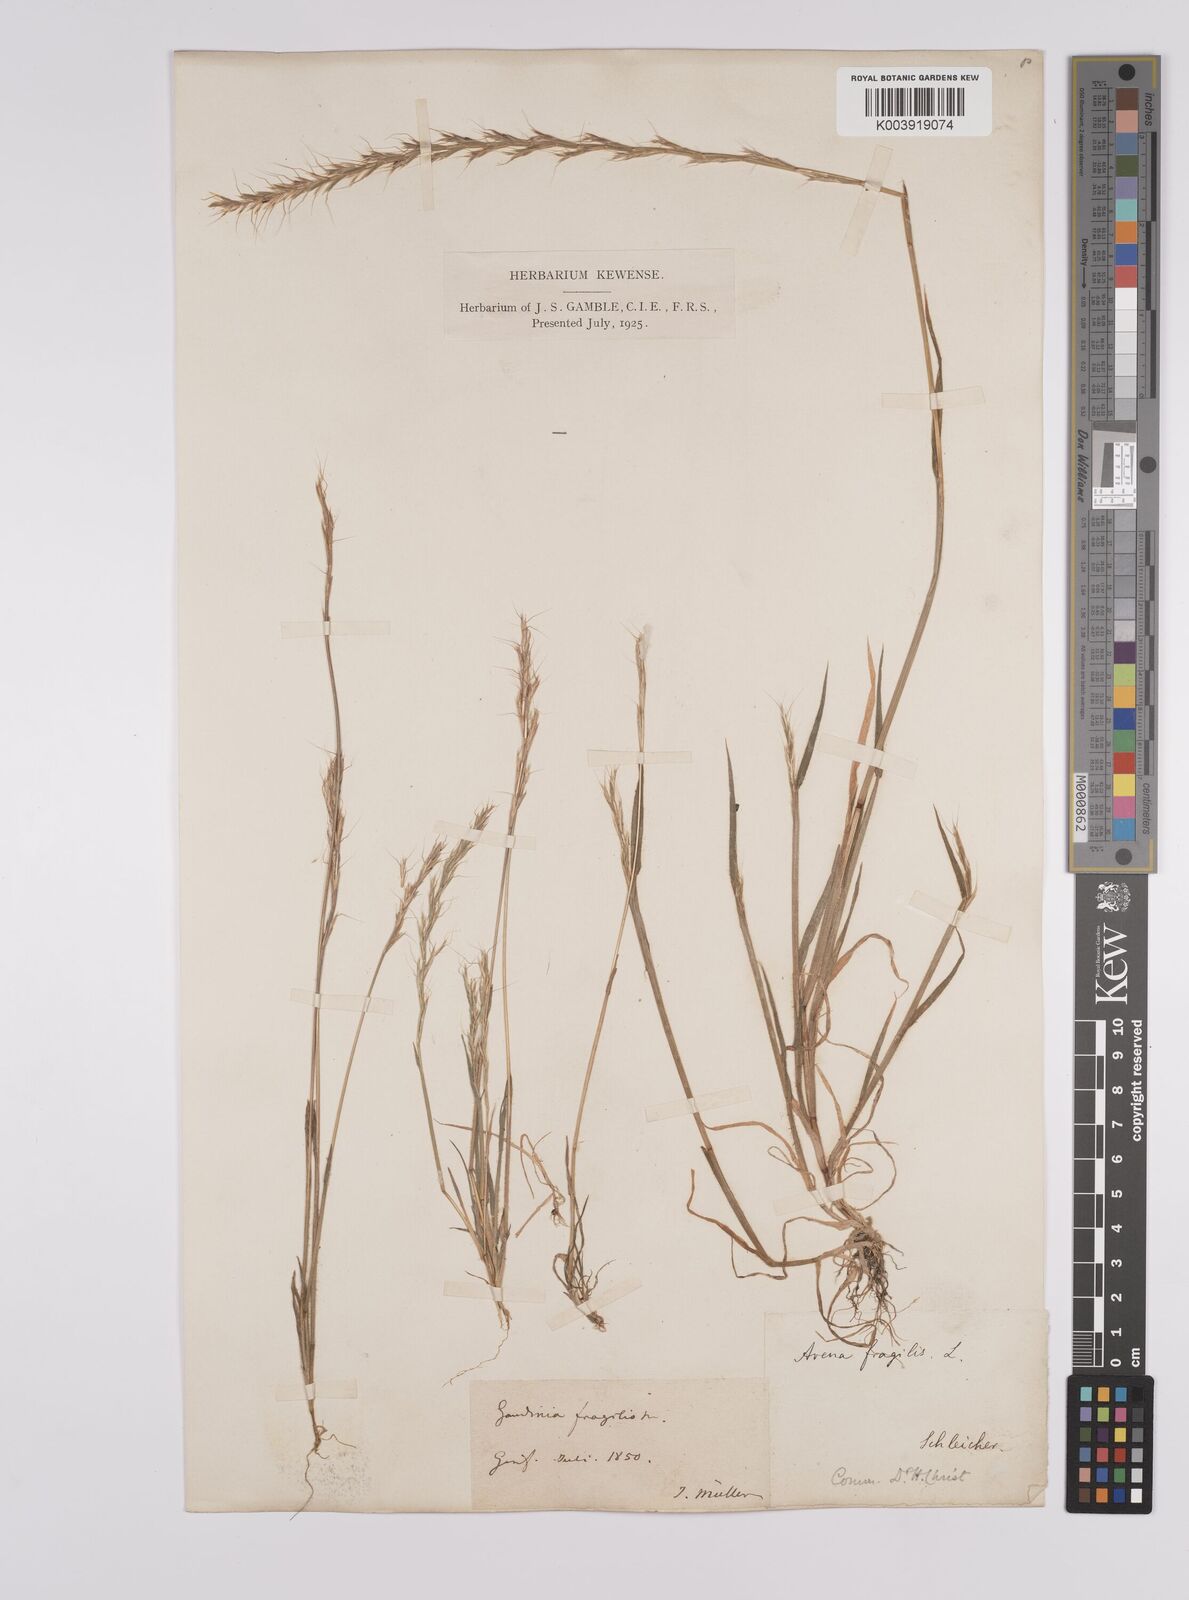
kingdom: Plantae
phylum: Tracheophyta
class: Liliopsida
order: Poales
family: Poaceae
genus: Gaudinia
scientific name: Gaudinia fragilis
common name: French oat-grass
